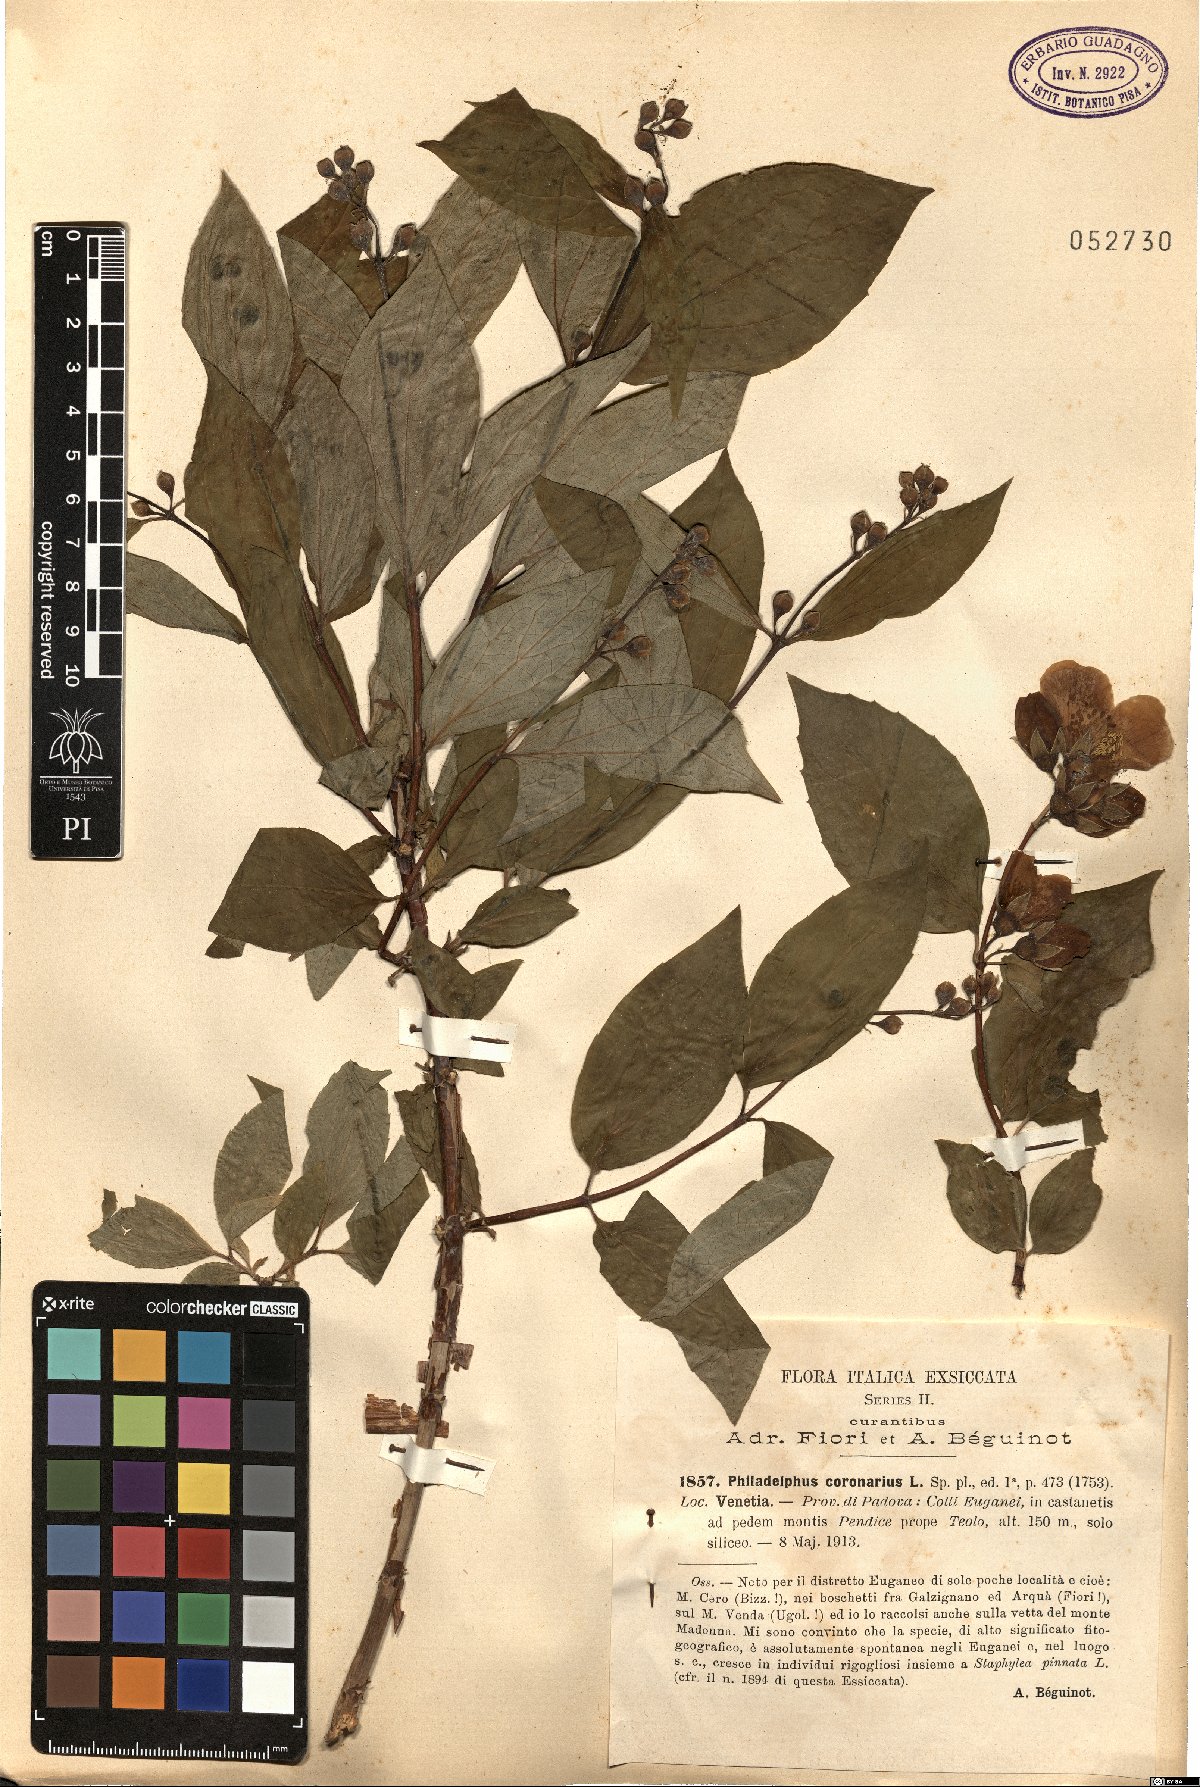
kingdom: Plantae
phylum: Tracheophyta
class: Magnoliopsida
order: Cornales
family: Hydrangeaceae
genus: Philadelphus
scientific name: Philadelphus coronarius
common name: Mock orange
